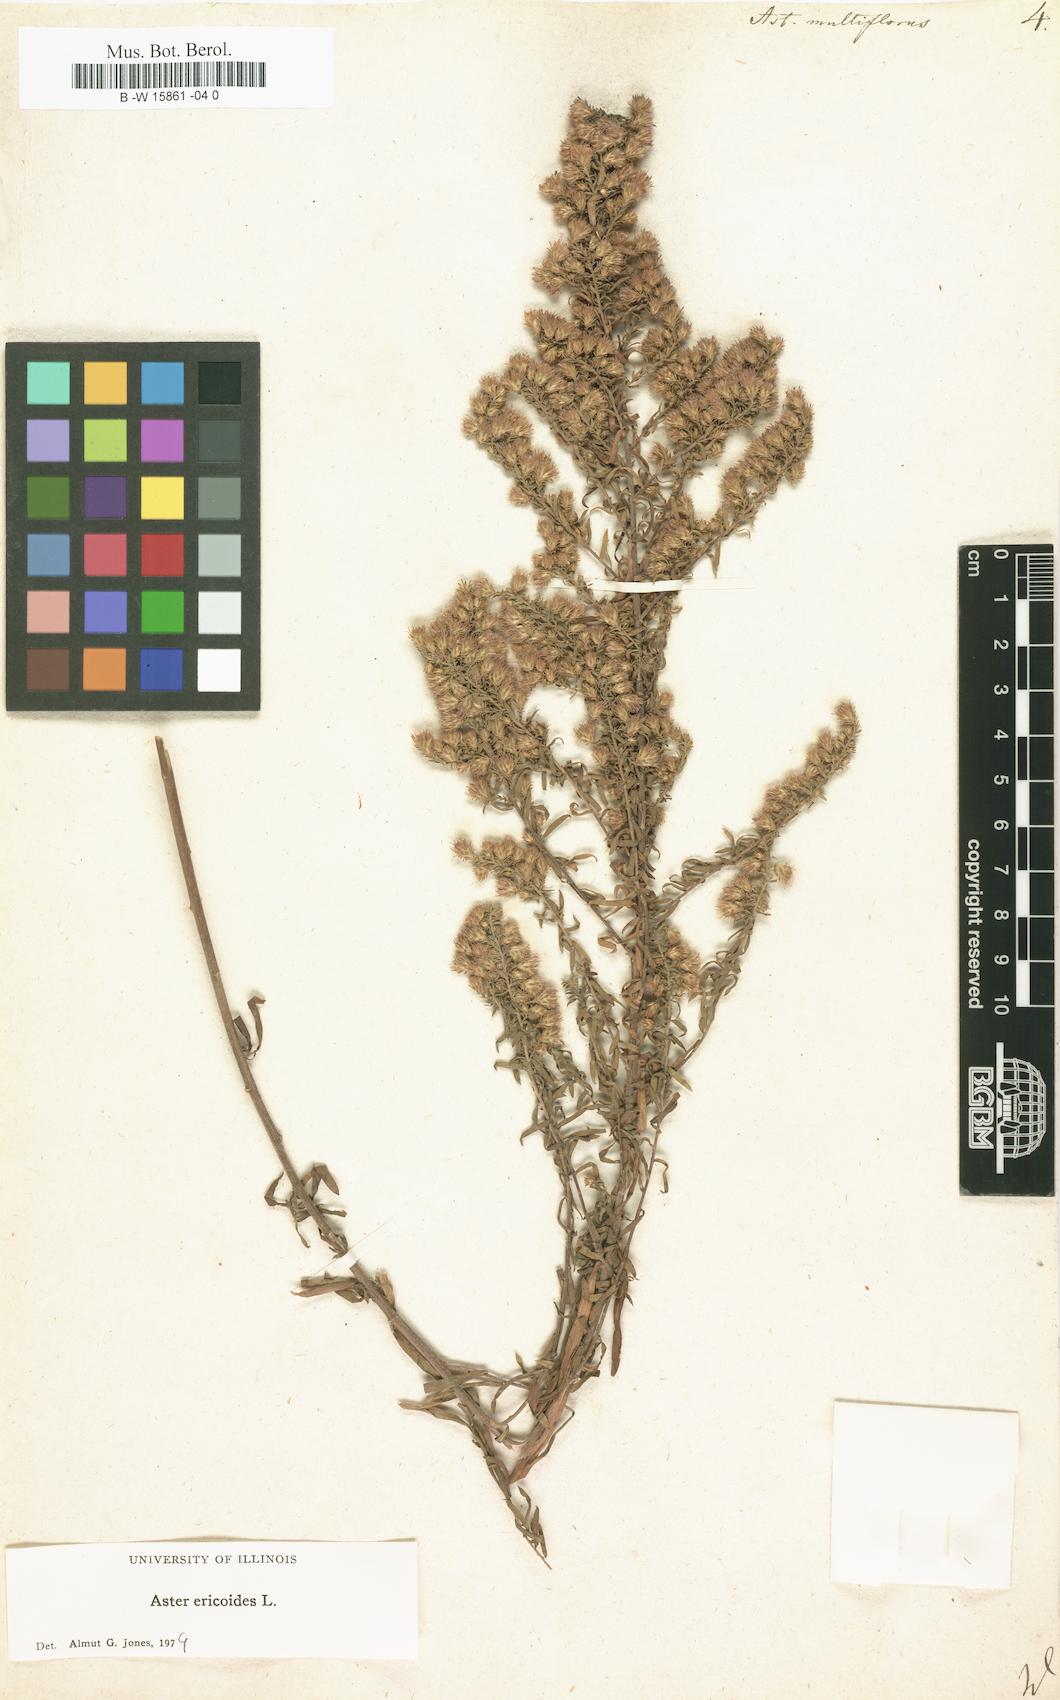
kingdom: Plantae
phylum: Tracheophyta
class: Magnoliopsida
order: Asterales
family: Asteraceae
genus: Symphyotrichum
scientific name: Symphyotrichum ericoides
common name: Heath aster
